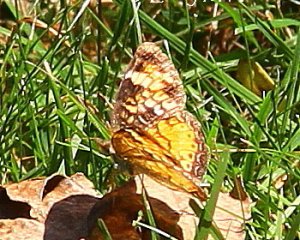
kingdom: Animalia
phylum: Arthropoda
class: Insecta
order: Lepidoptera
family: Nymphalidae
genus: Phyciodes
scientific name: Phyciodes tharos
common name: Pearl Crescent
